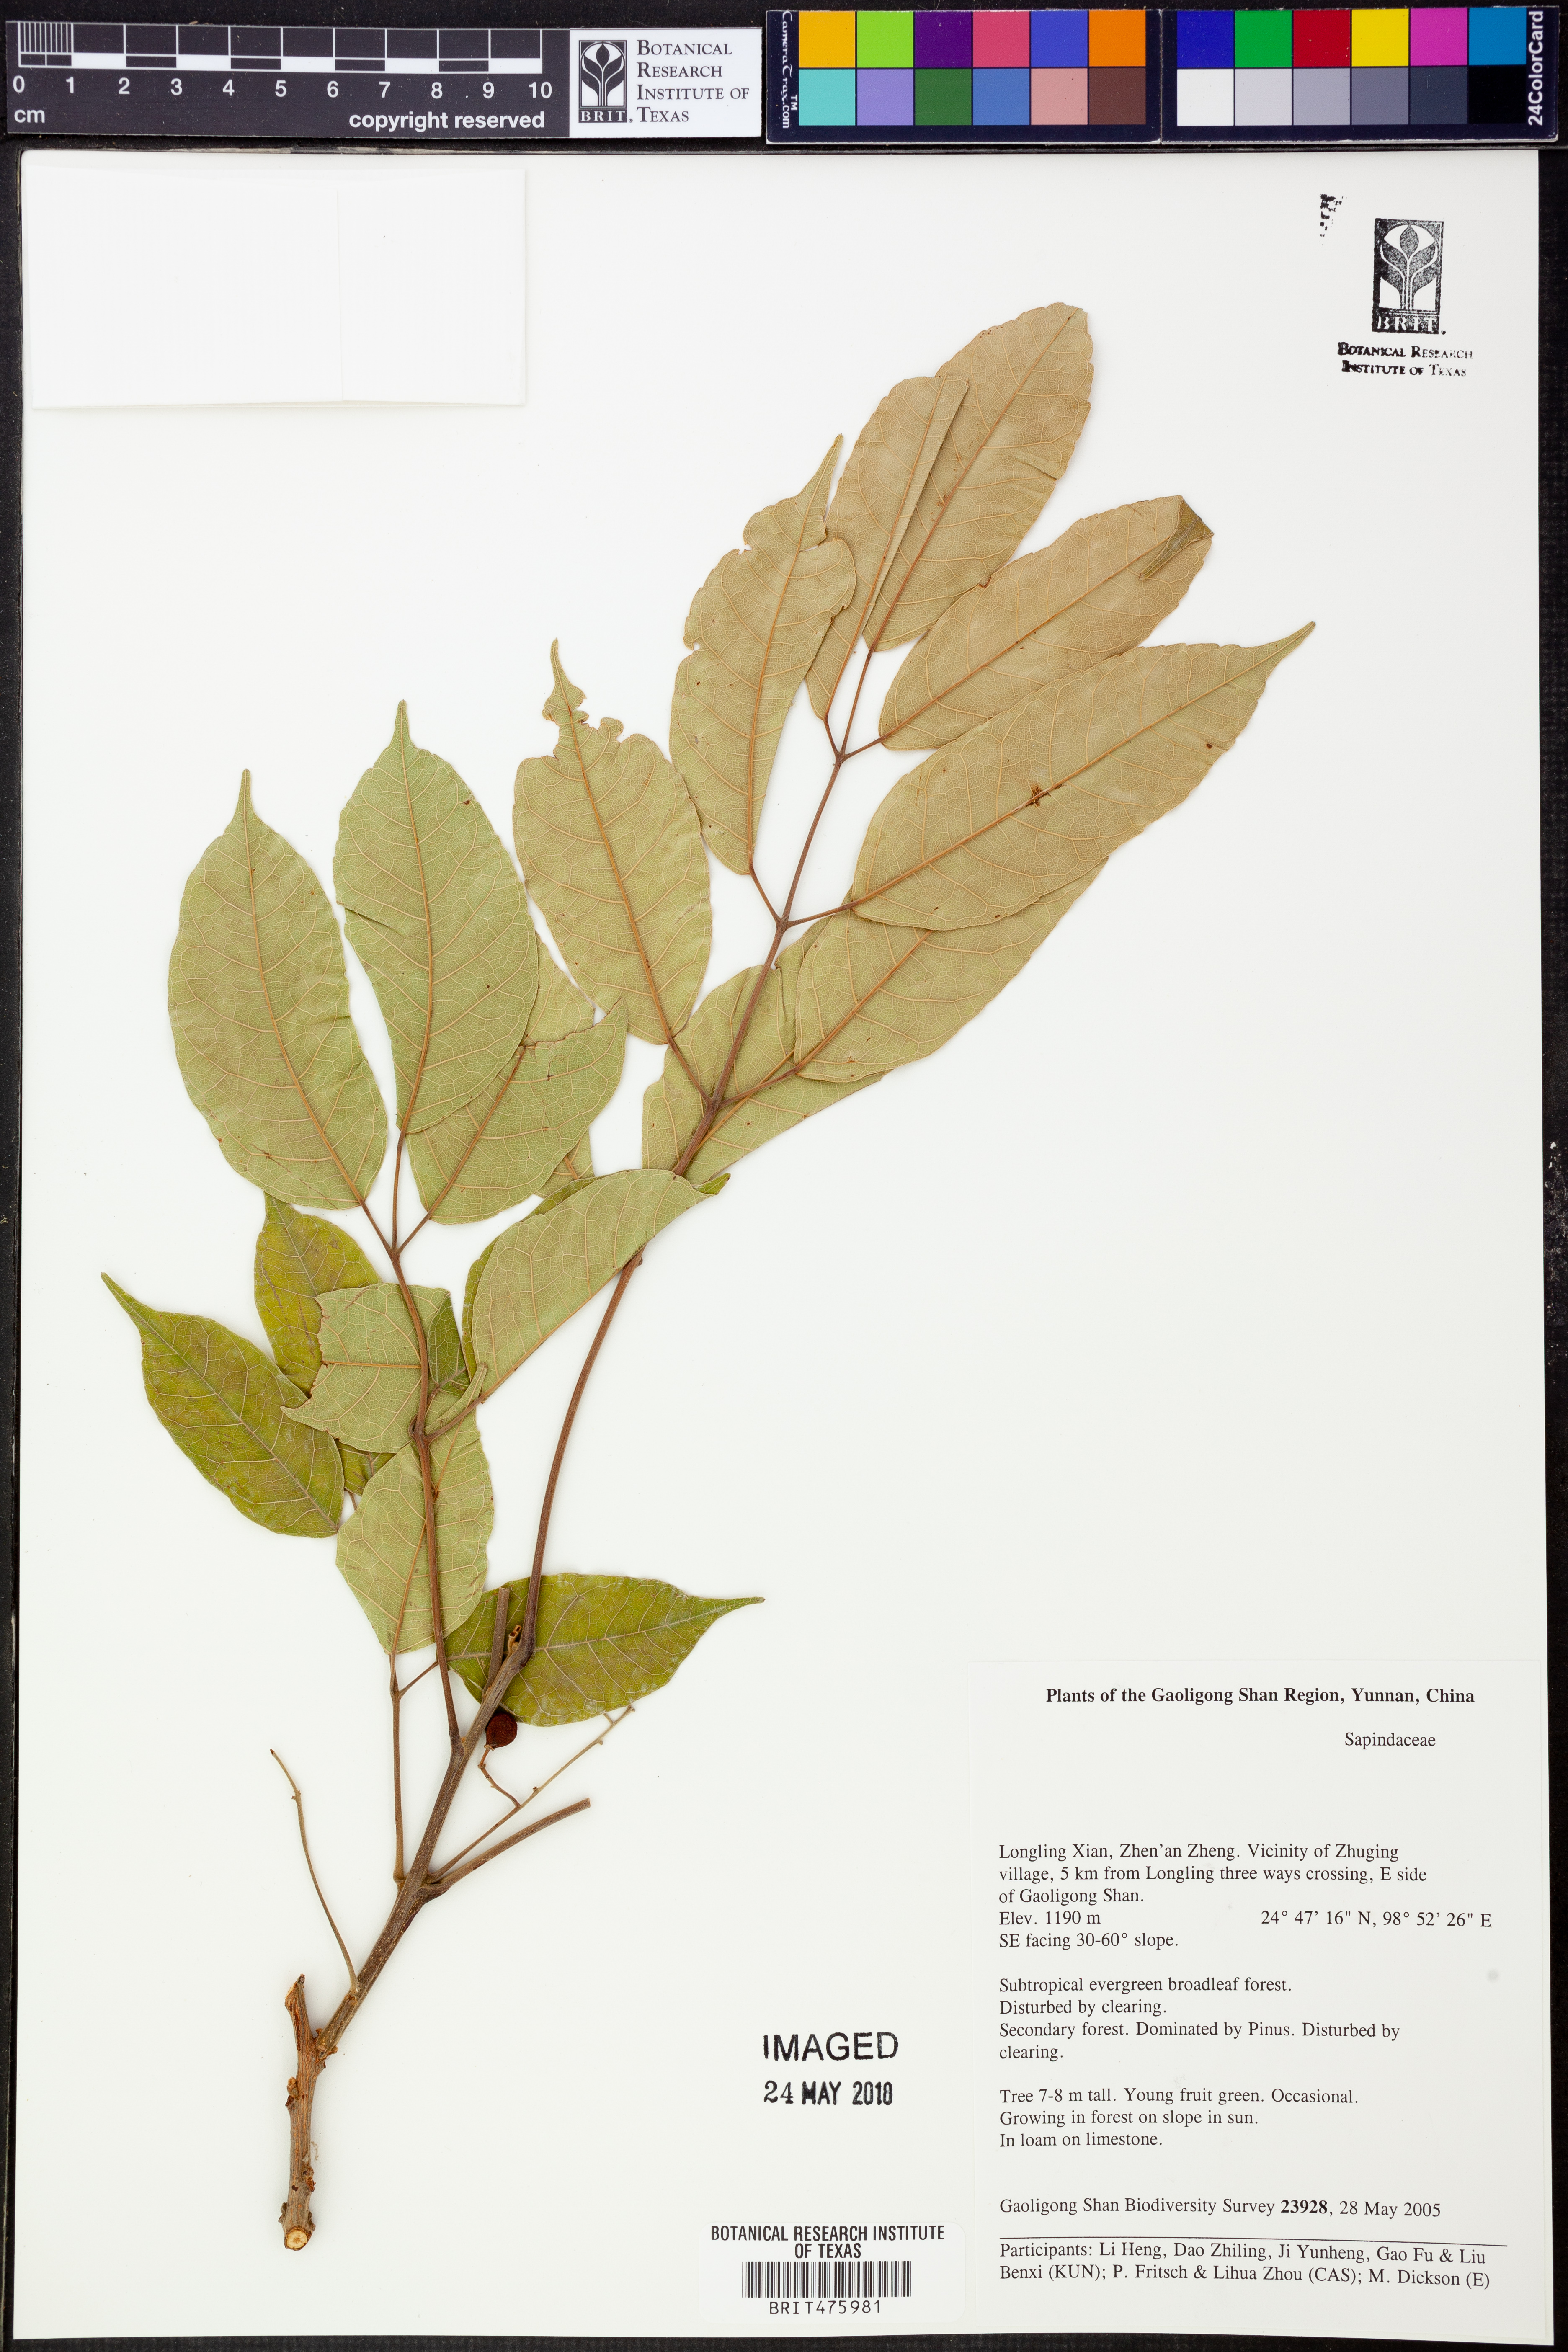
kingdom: Plantae
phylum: Tracheophyta
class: Magnoliopsida
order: Sapindales
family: Sapindaceae
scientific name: Sapindaceae
